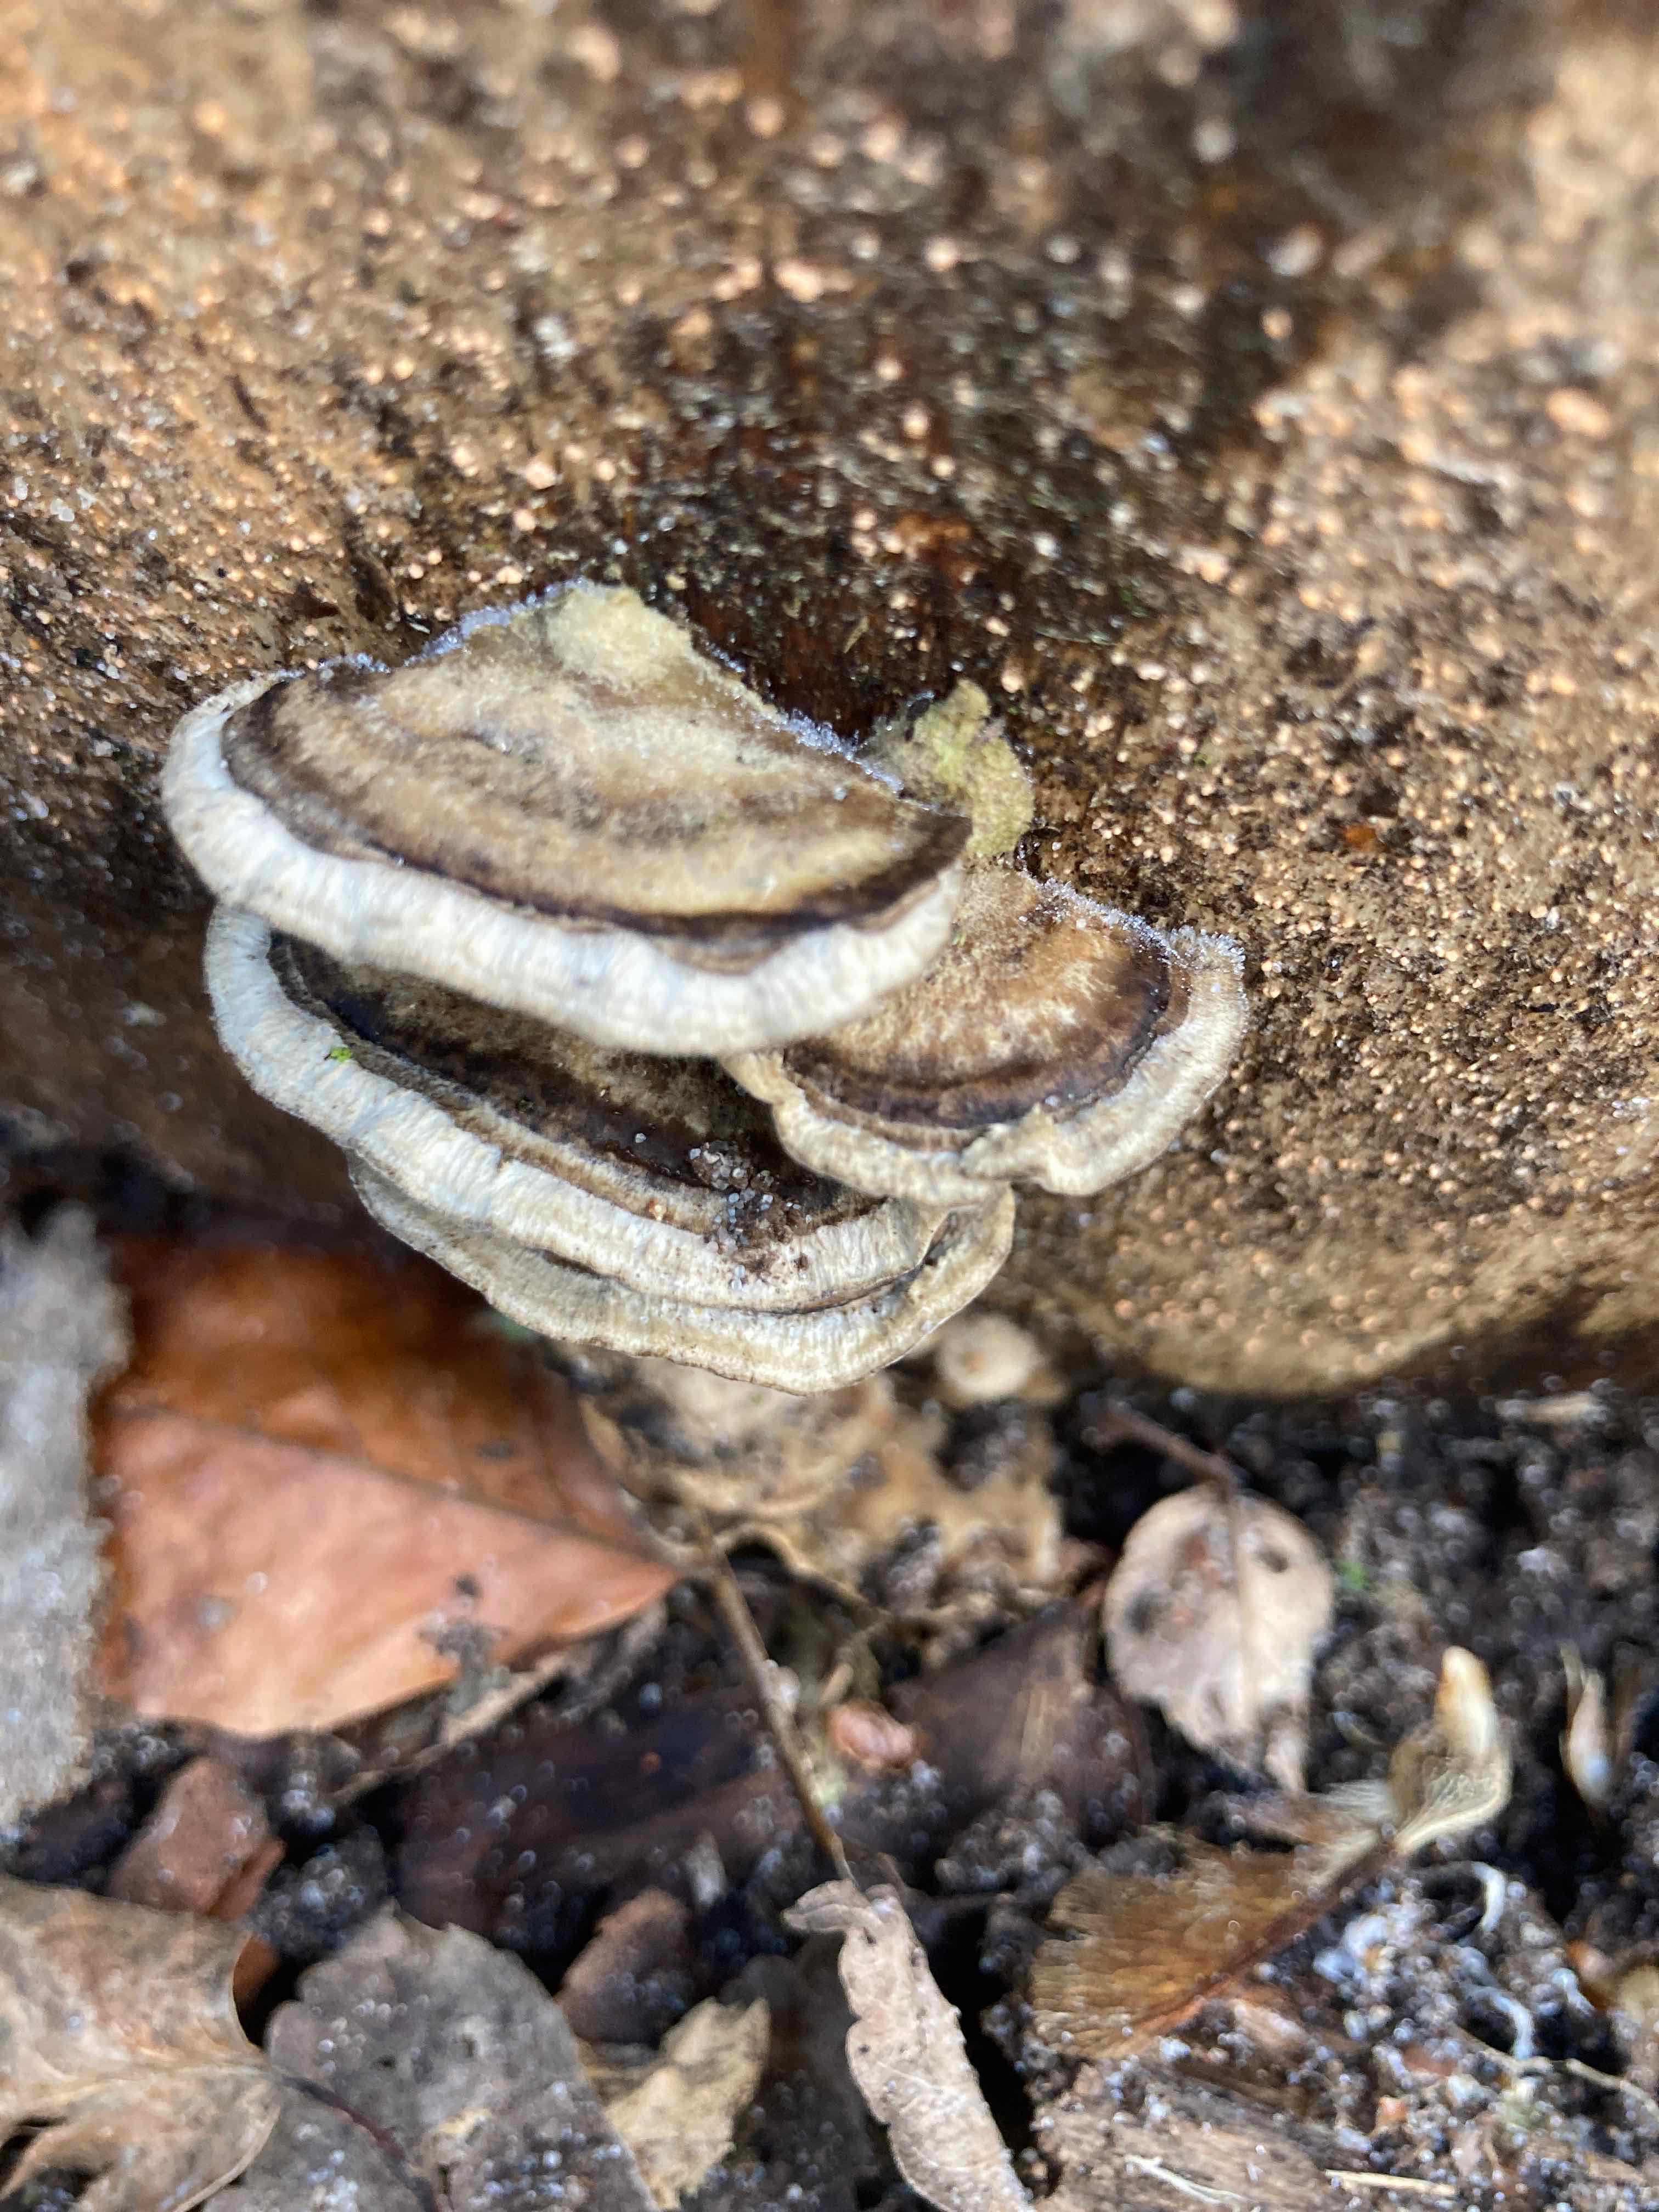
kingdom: Fungi
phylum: Basidiomycota
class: Agaricomycetes
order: Polyporales
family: Phanerochaetaceae
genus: Bjerkandera
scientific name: Bjerkandera adusta
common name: sveden sodporesvamp
